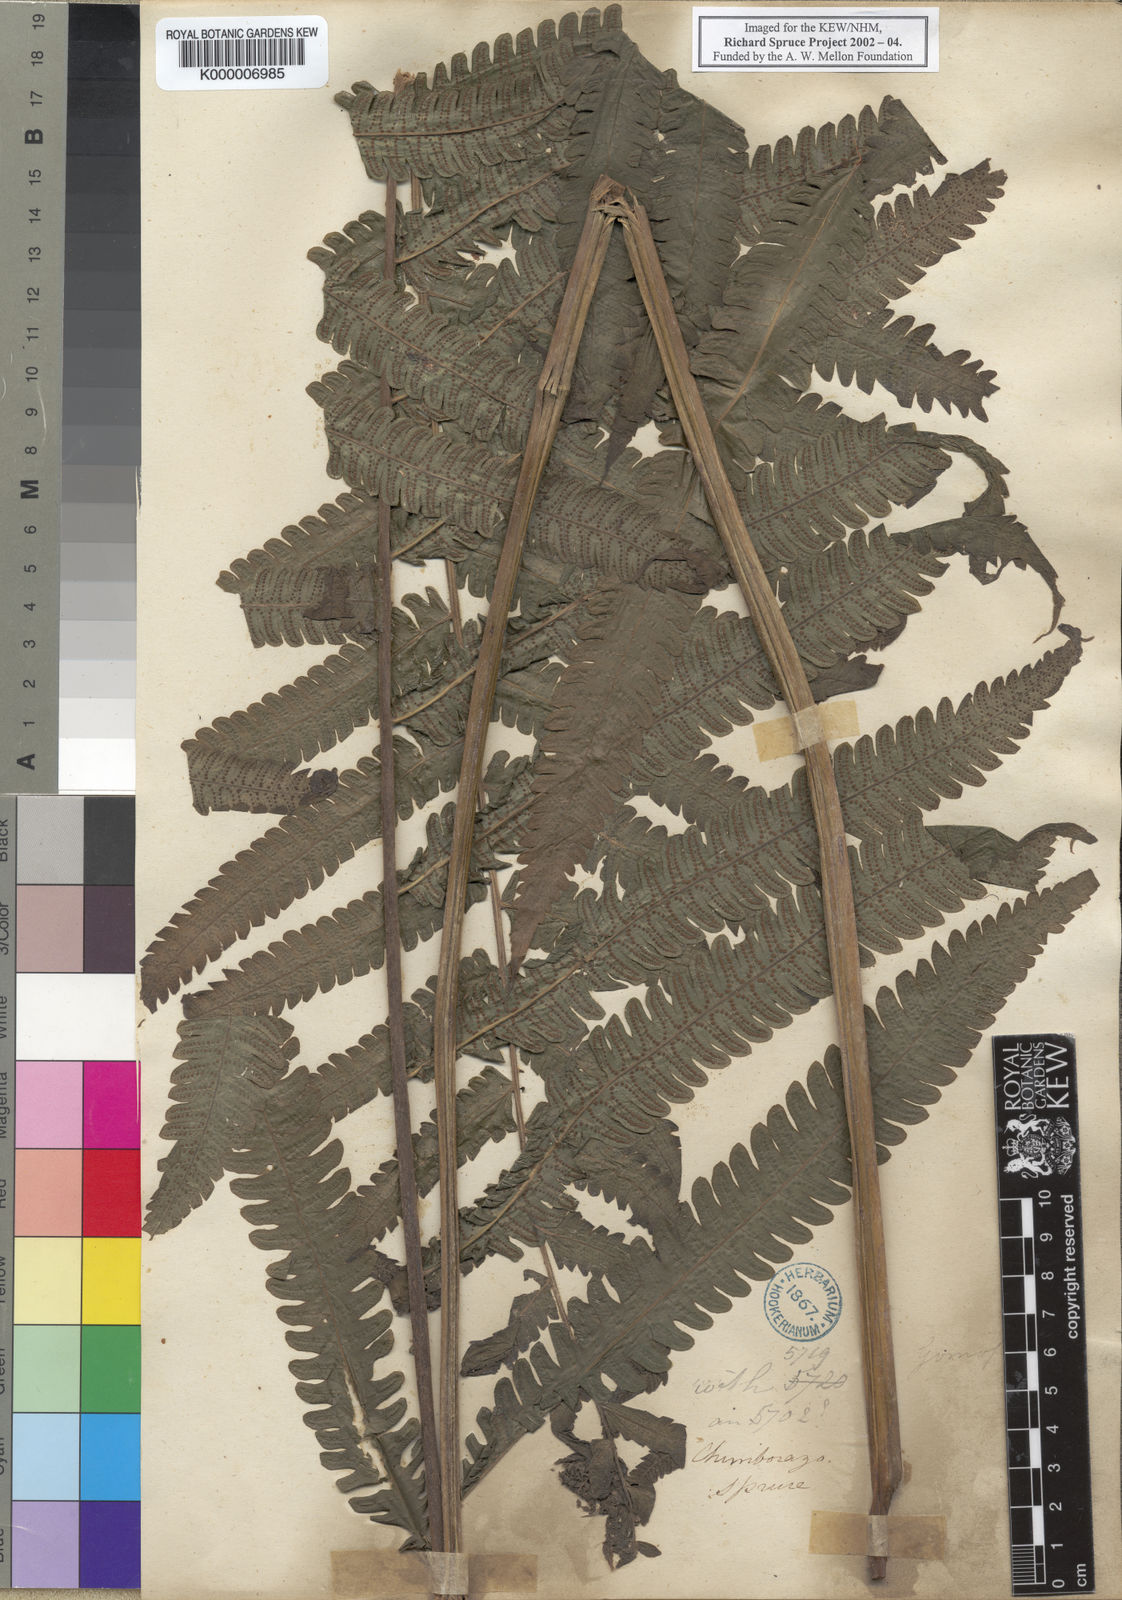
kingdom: Plantae
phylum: Tracheophyta
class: Polypodiopsida
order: Polypodiales
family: Thelypteridaceae
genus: Goniopteris
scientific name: Goniopteris pennata
